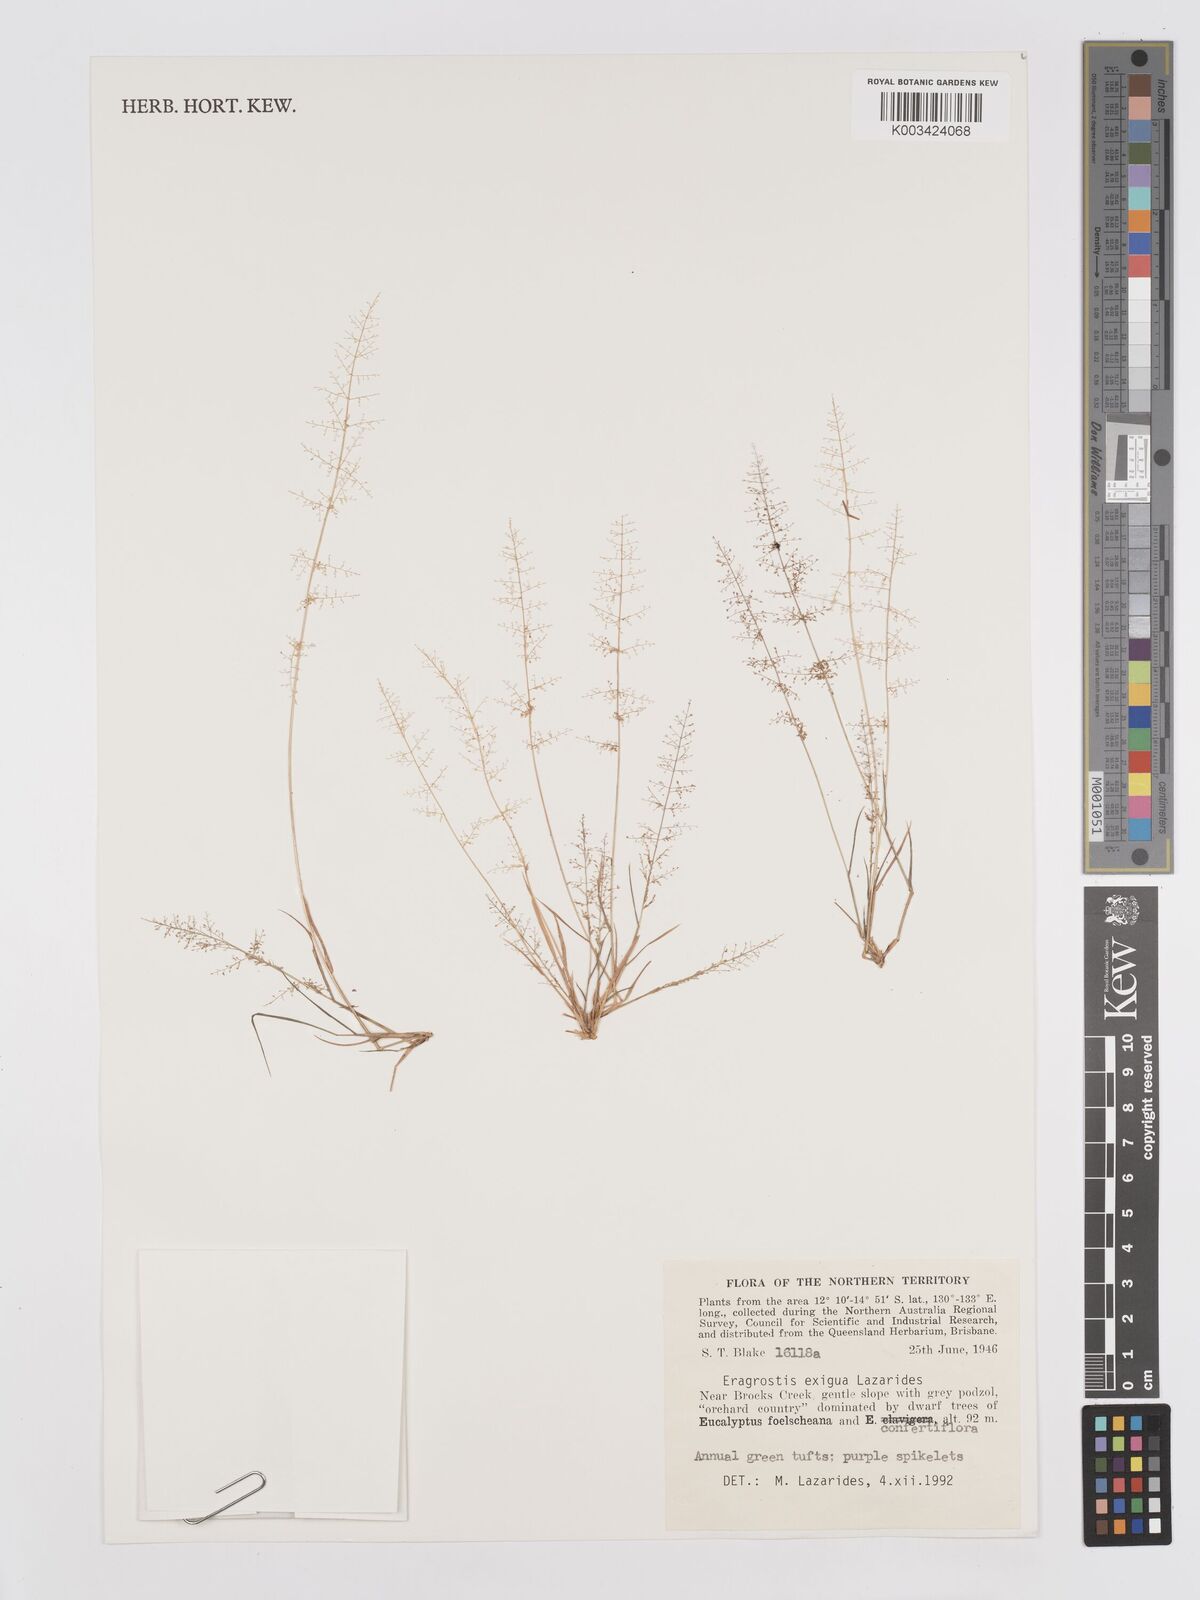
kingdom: Plantae
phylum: Tracheophyta
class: Liliopsida
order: Poales
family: Poaceae
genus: Eragrostis
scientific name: Eragrostis exigua
